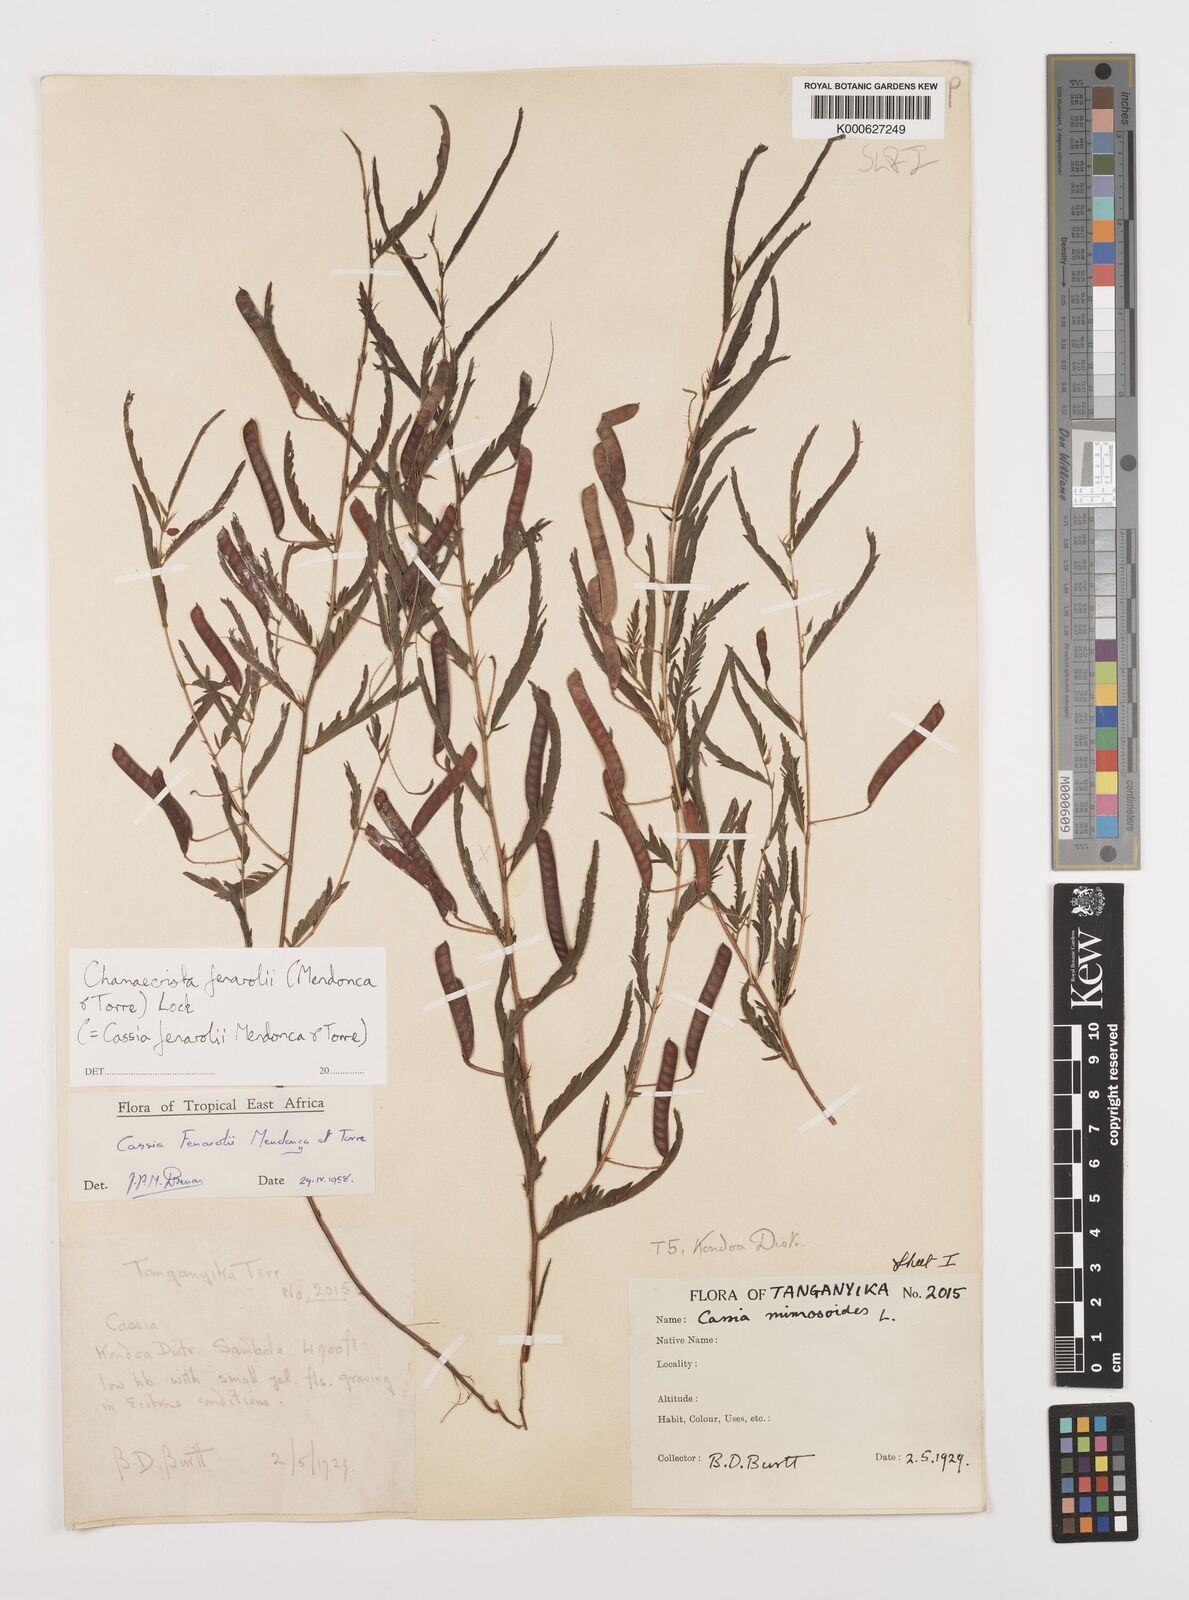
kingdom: Plantae
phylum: Tracheophyta
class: Magnoliopsida
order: Fabales
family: Fabaceae
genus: Chamaecrista
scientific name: Chamaecrista fenarolii
